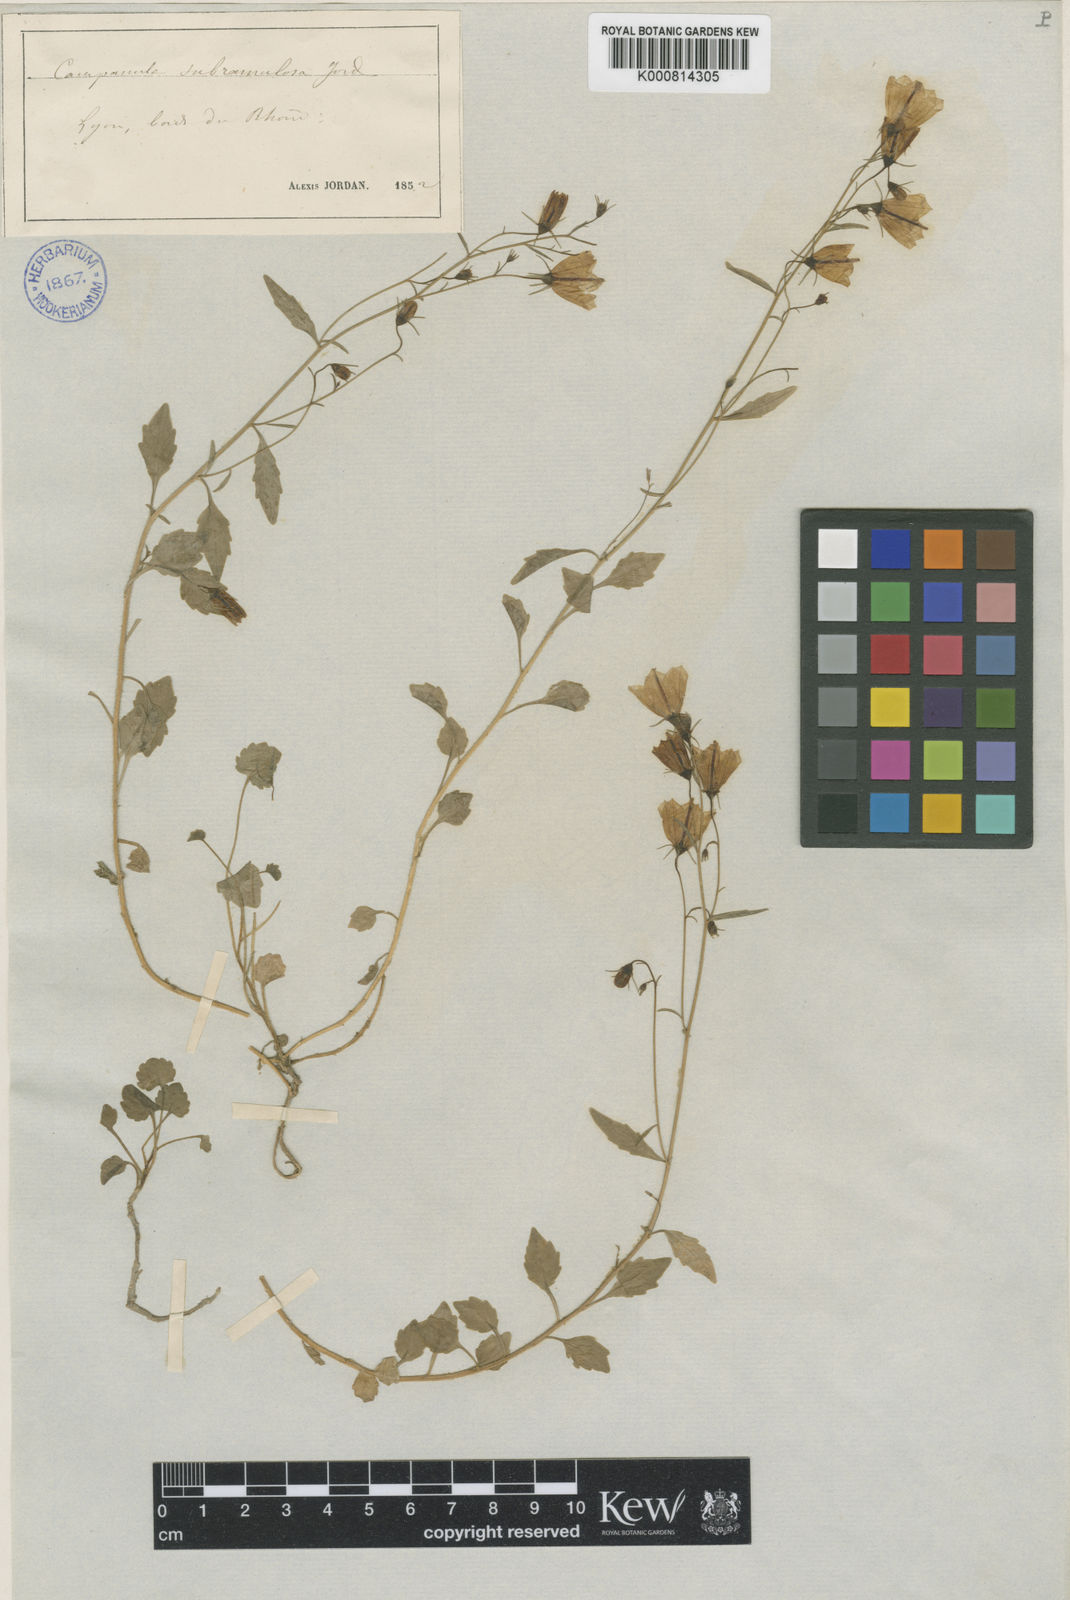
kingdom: Plantae
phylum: Tracheophyta
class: Magnoliopsida
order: Asterales
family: Campanulaceae
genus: Campanula
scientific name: Campanula cochleariifolia
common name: Fairies'-thimbles
